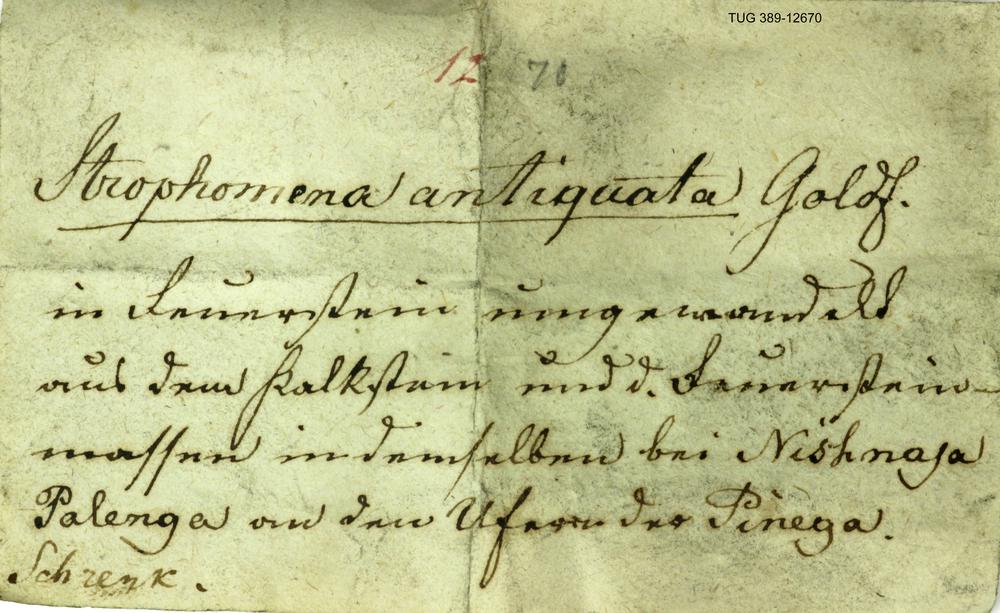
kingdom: Animalia
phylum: Brachiopoda
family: Strophomenidae
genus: Katastrophomena
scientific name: Katastrophomena Strophomena antiquata
